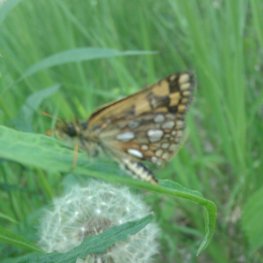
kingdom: Animalia
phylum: Arthropoda
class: Insecta
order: Lepidoptera
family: Hesperiidae
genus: Carterocephalus
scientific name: Carterocephalus palaemon
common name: Chequered Skipper
